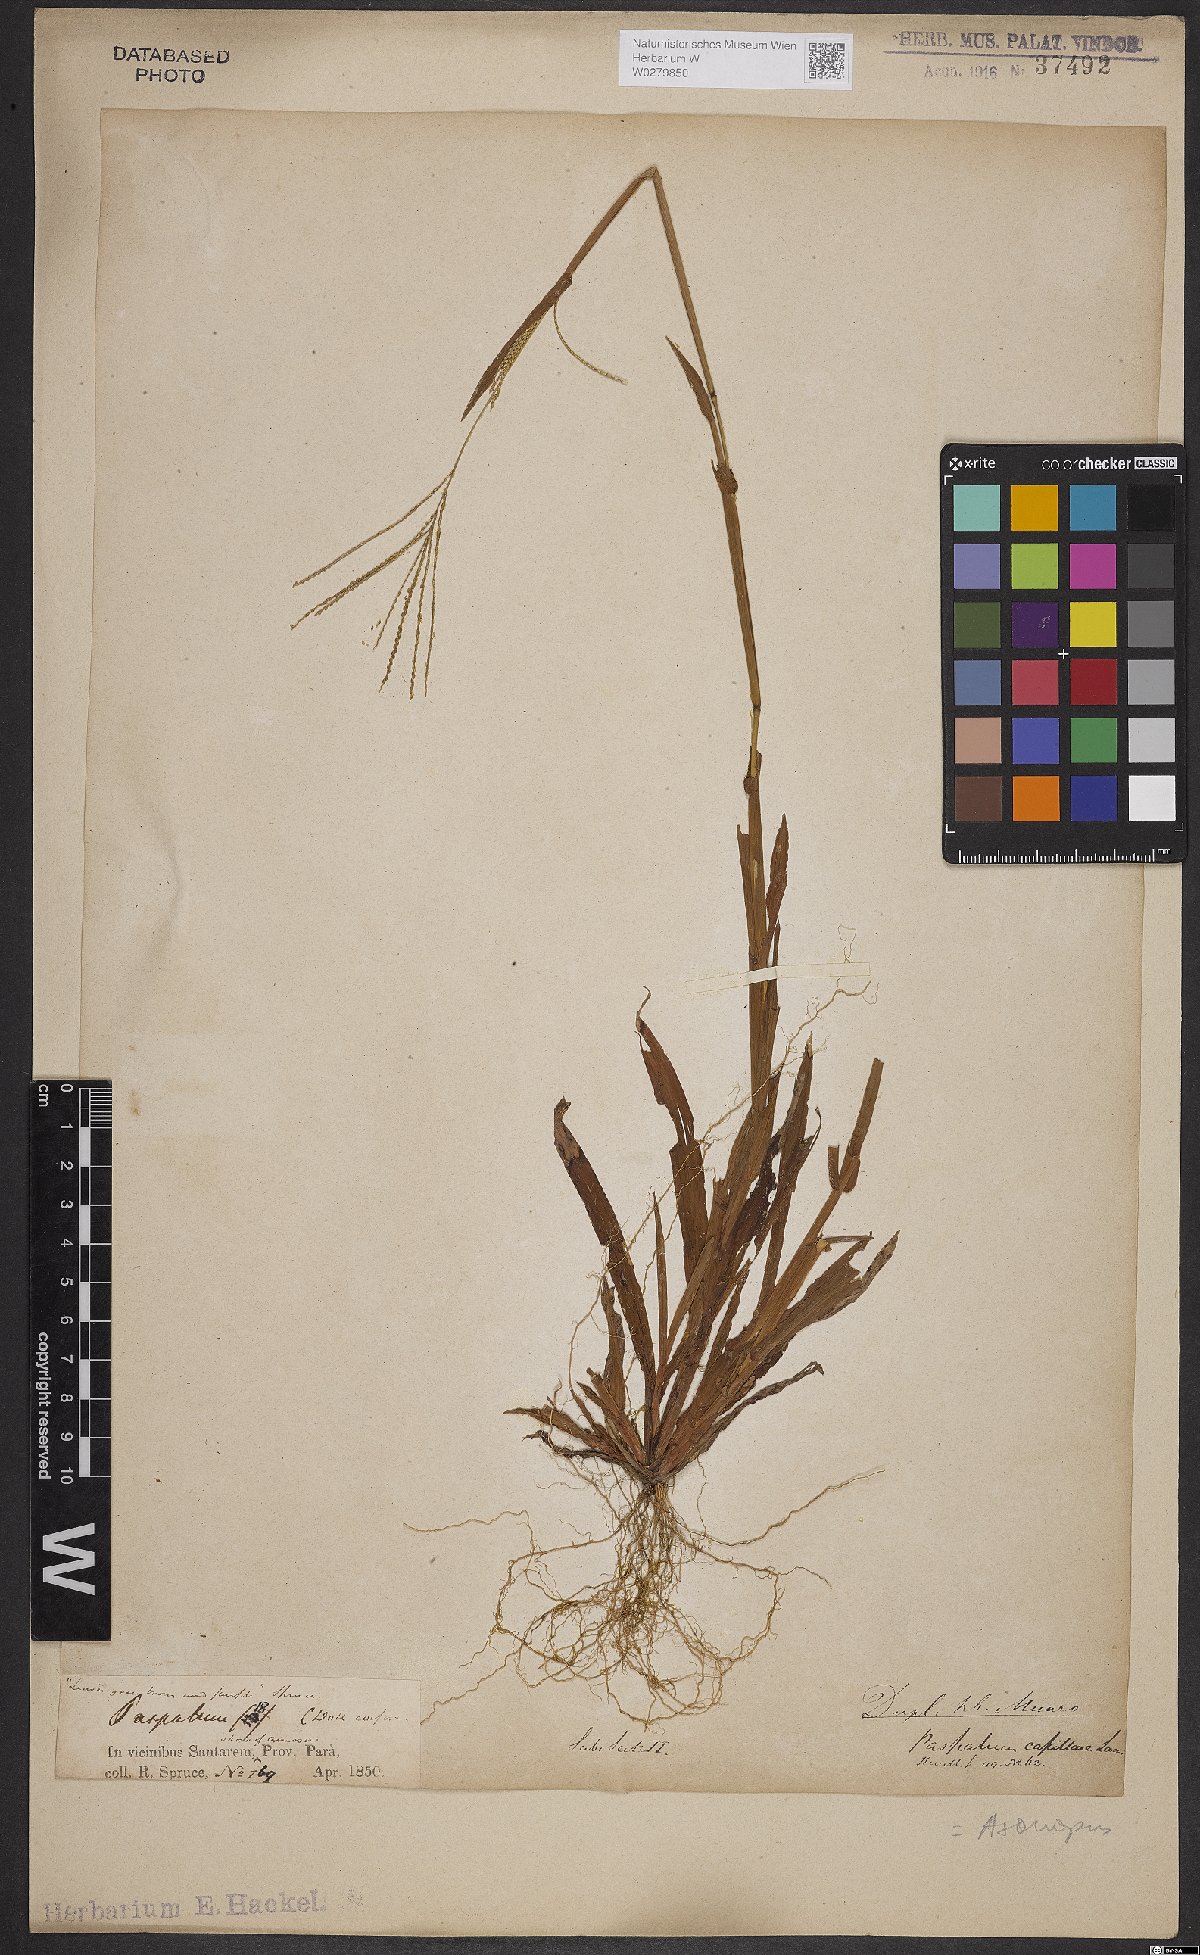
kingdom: Plantae
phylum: Tracheophyta
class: Liliopsida
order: Poales
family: Poaceae
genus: Axonopus
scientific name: Axonopus capillaris
